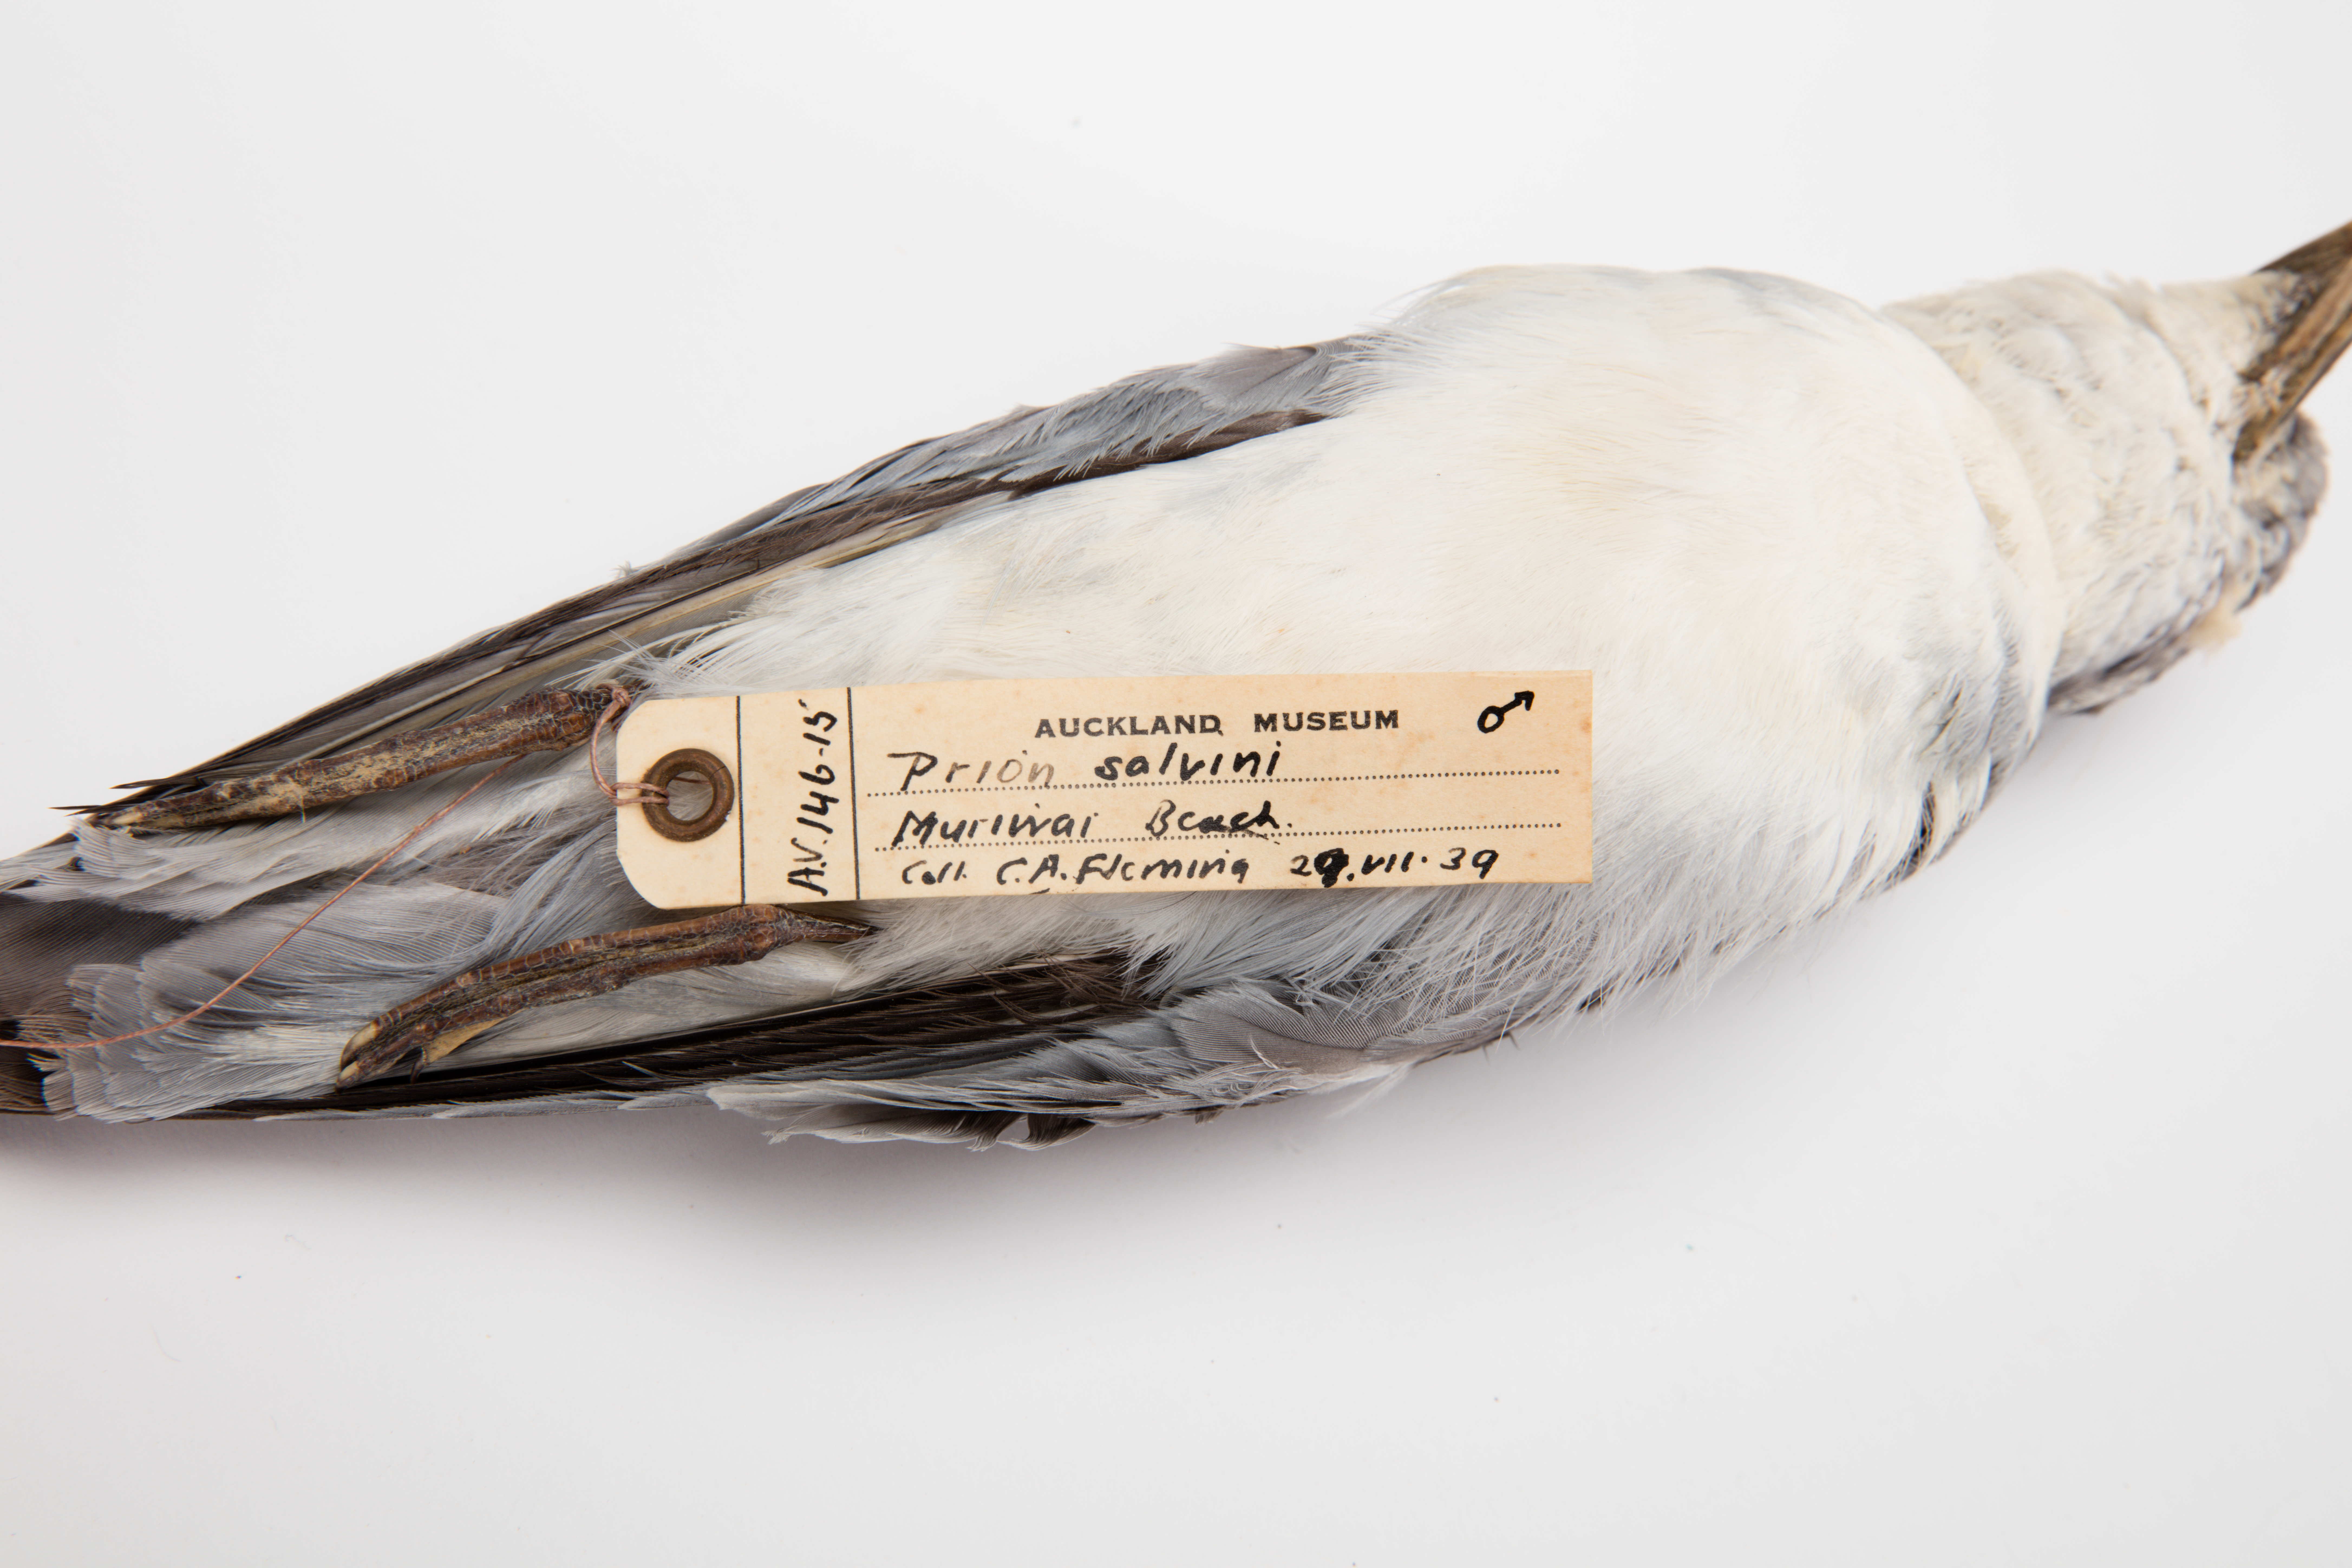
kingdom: Animalia
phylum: Chordata
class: Aves
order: Procellariiformes
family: Procellariidae
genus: Pachyptila
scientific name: Pachyptila salvini
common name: Salvin's prion
